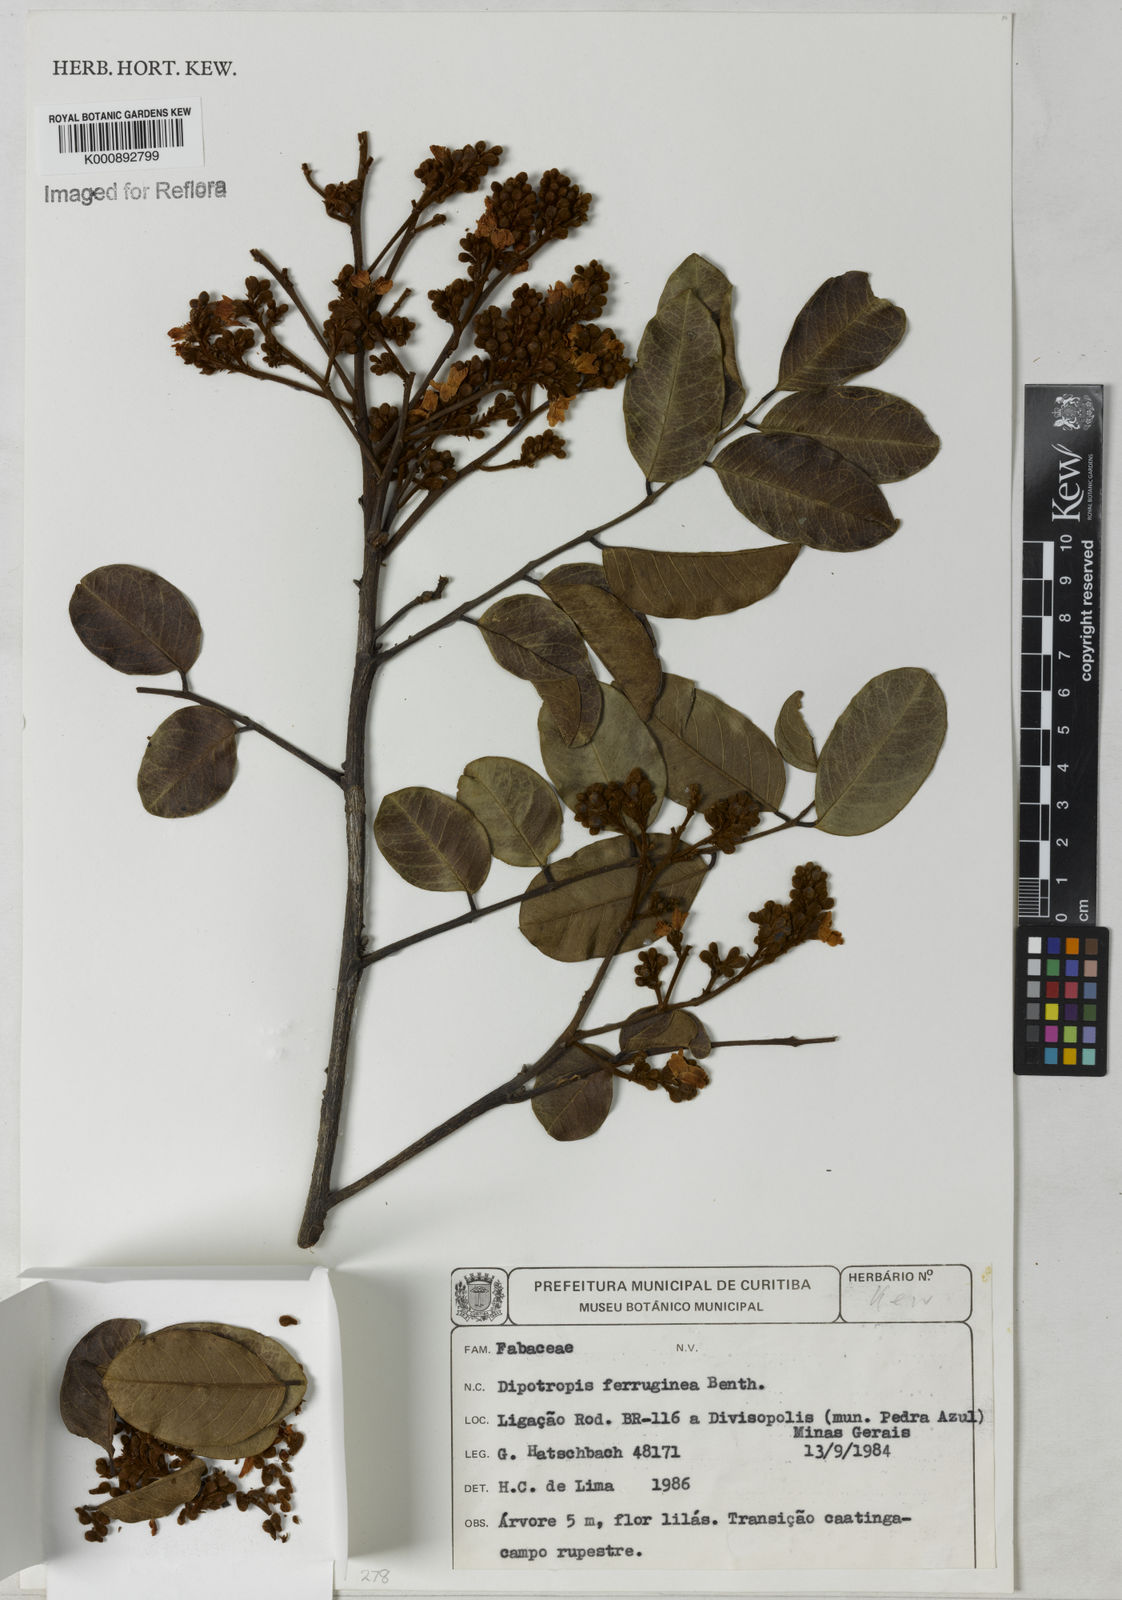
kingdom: Plantae
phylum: Tracheophyta
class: Magnoliopsida
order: Fabales
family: Fabaceae
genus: Diplotropis
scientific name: Diplotropis ferruginea
